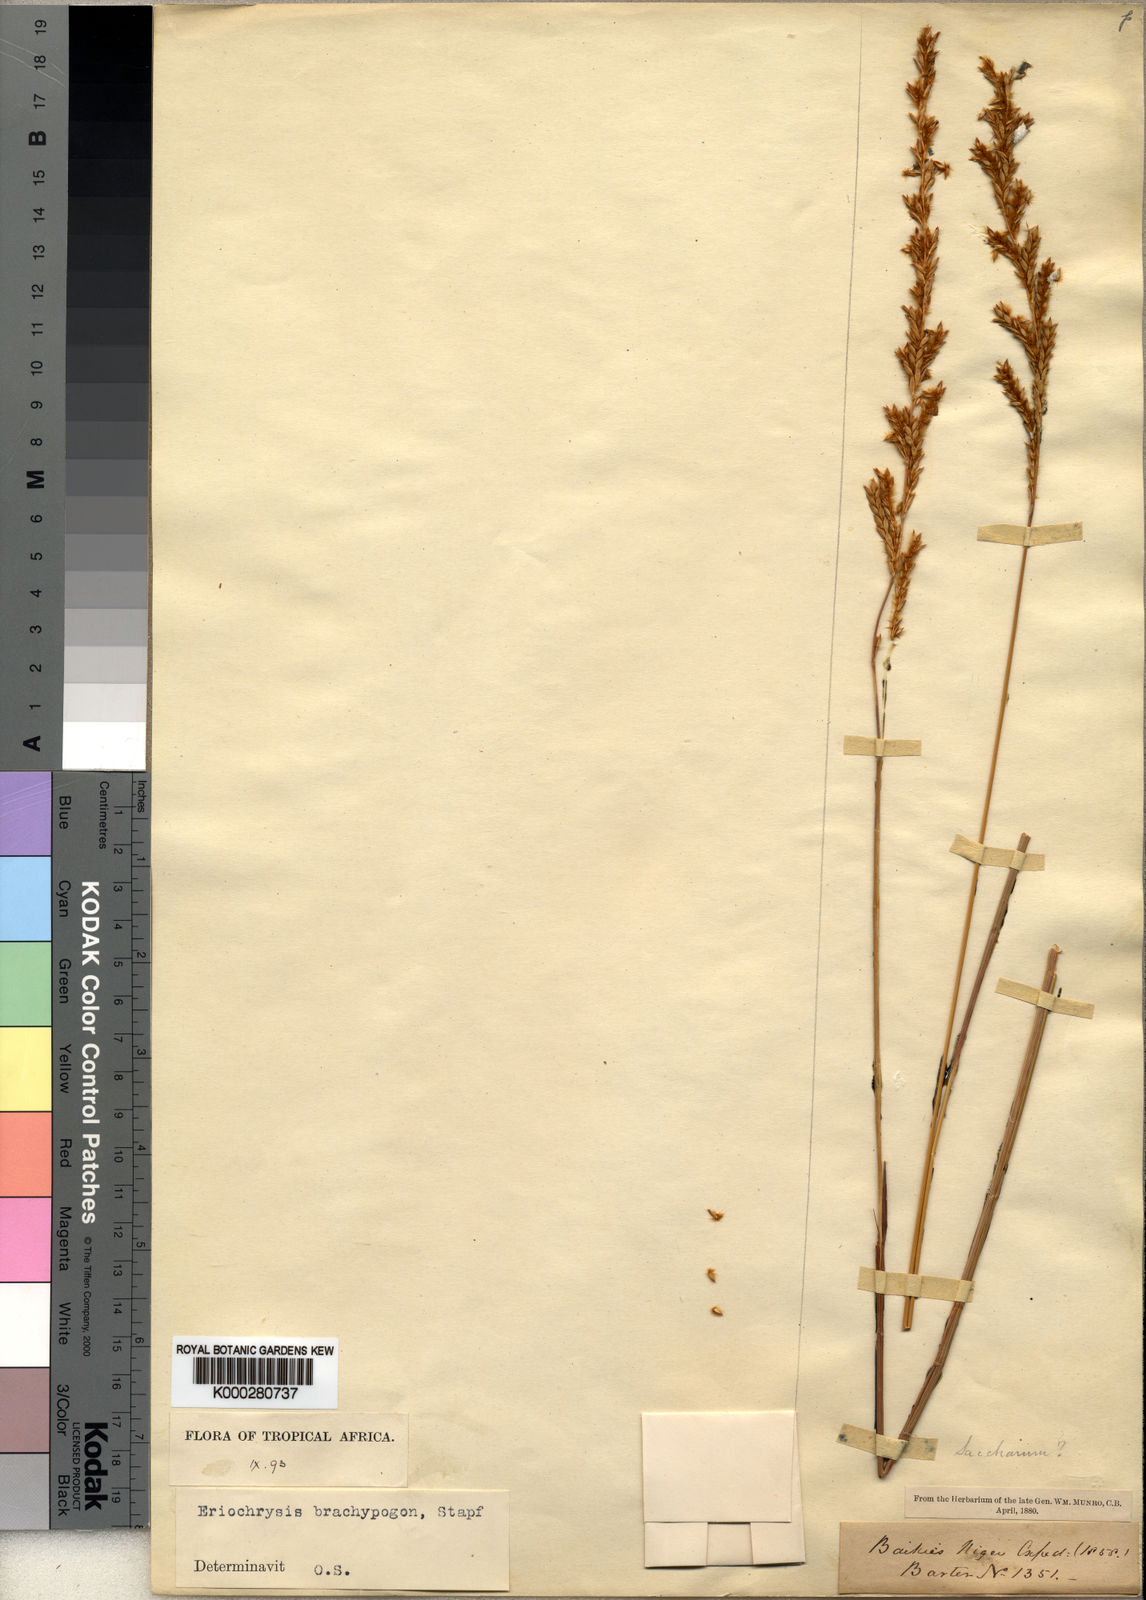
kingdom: Plantae
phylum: Tracheophyta
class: Liliopsida
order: Poales
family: Poaceae
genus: Eriochrysis
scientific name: Eriochrysis brachypogon
